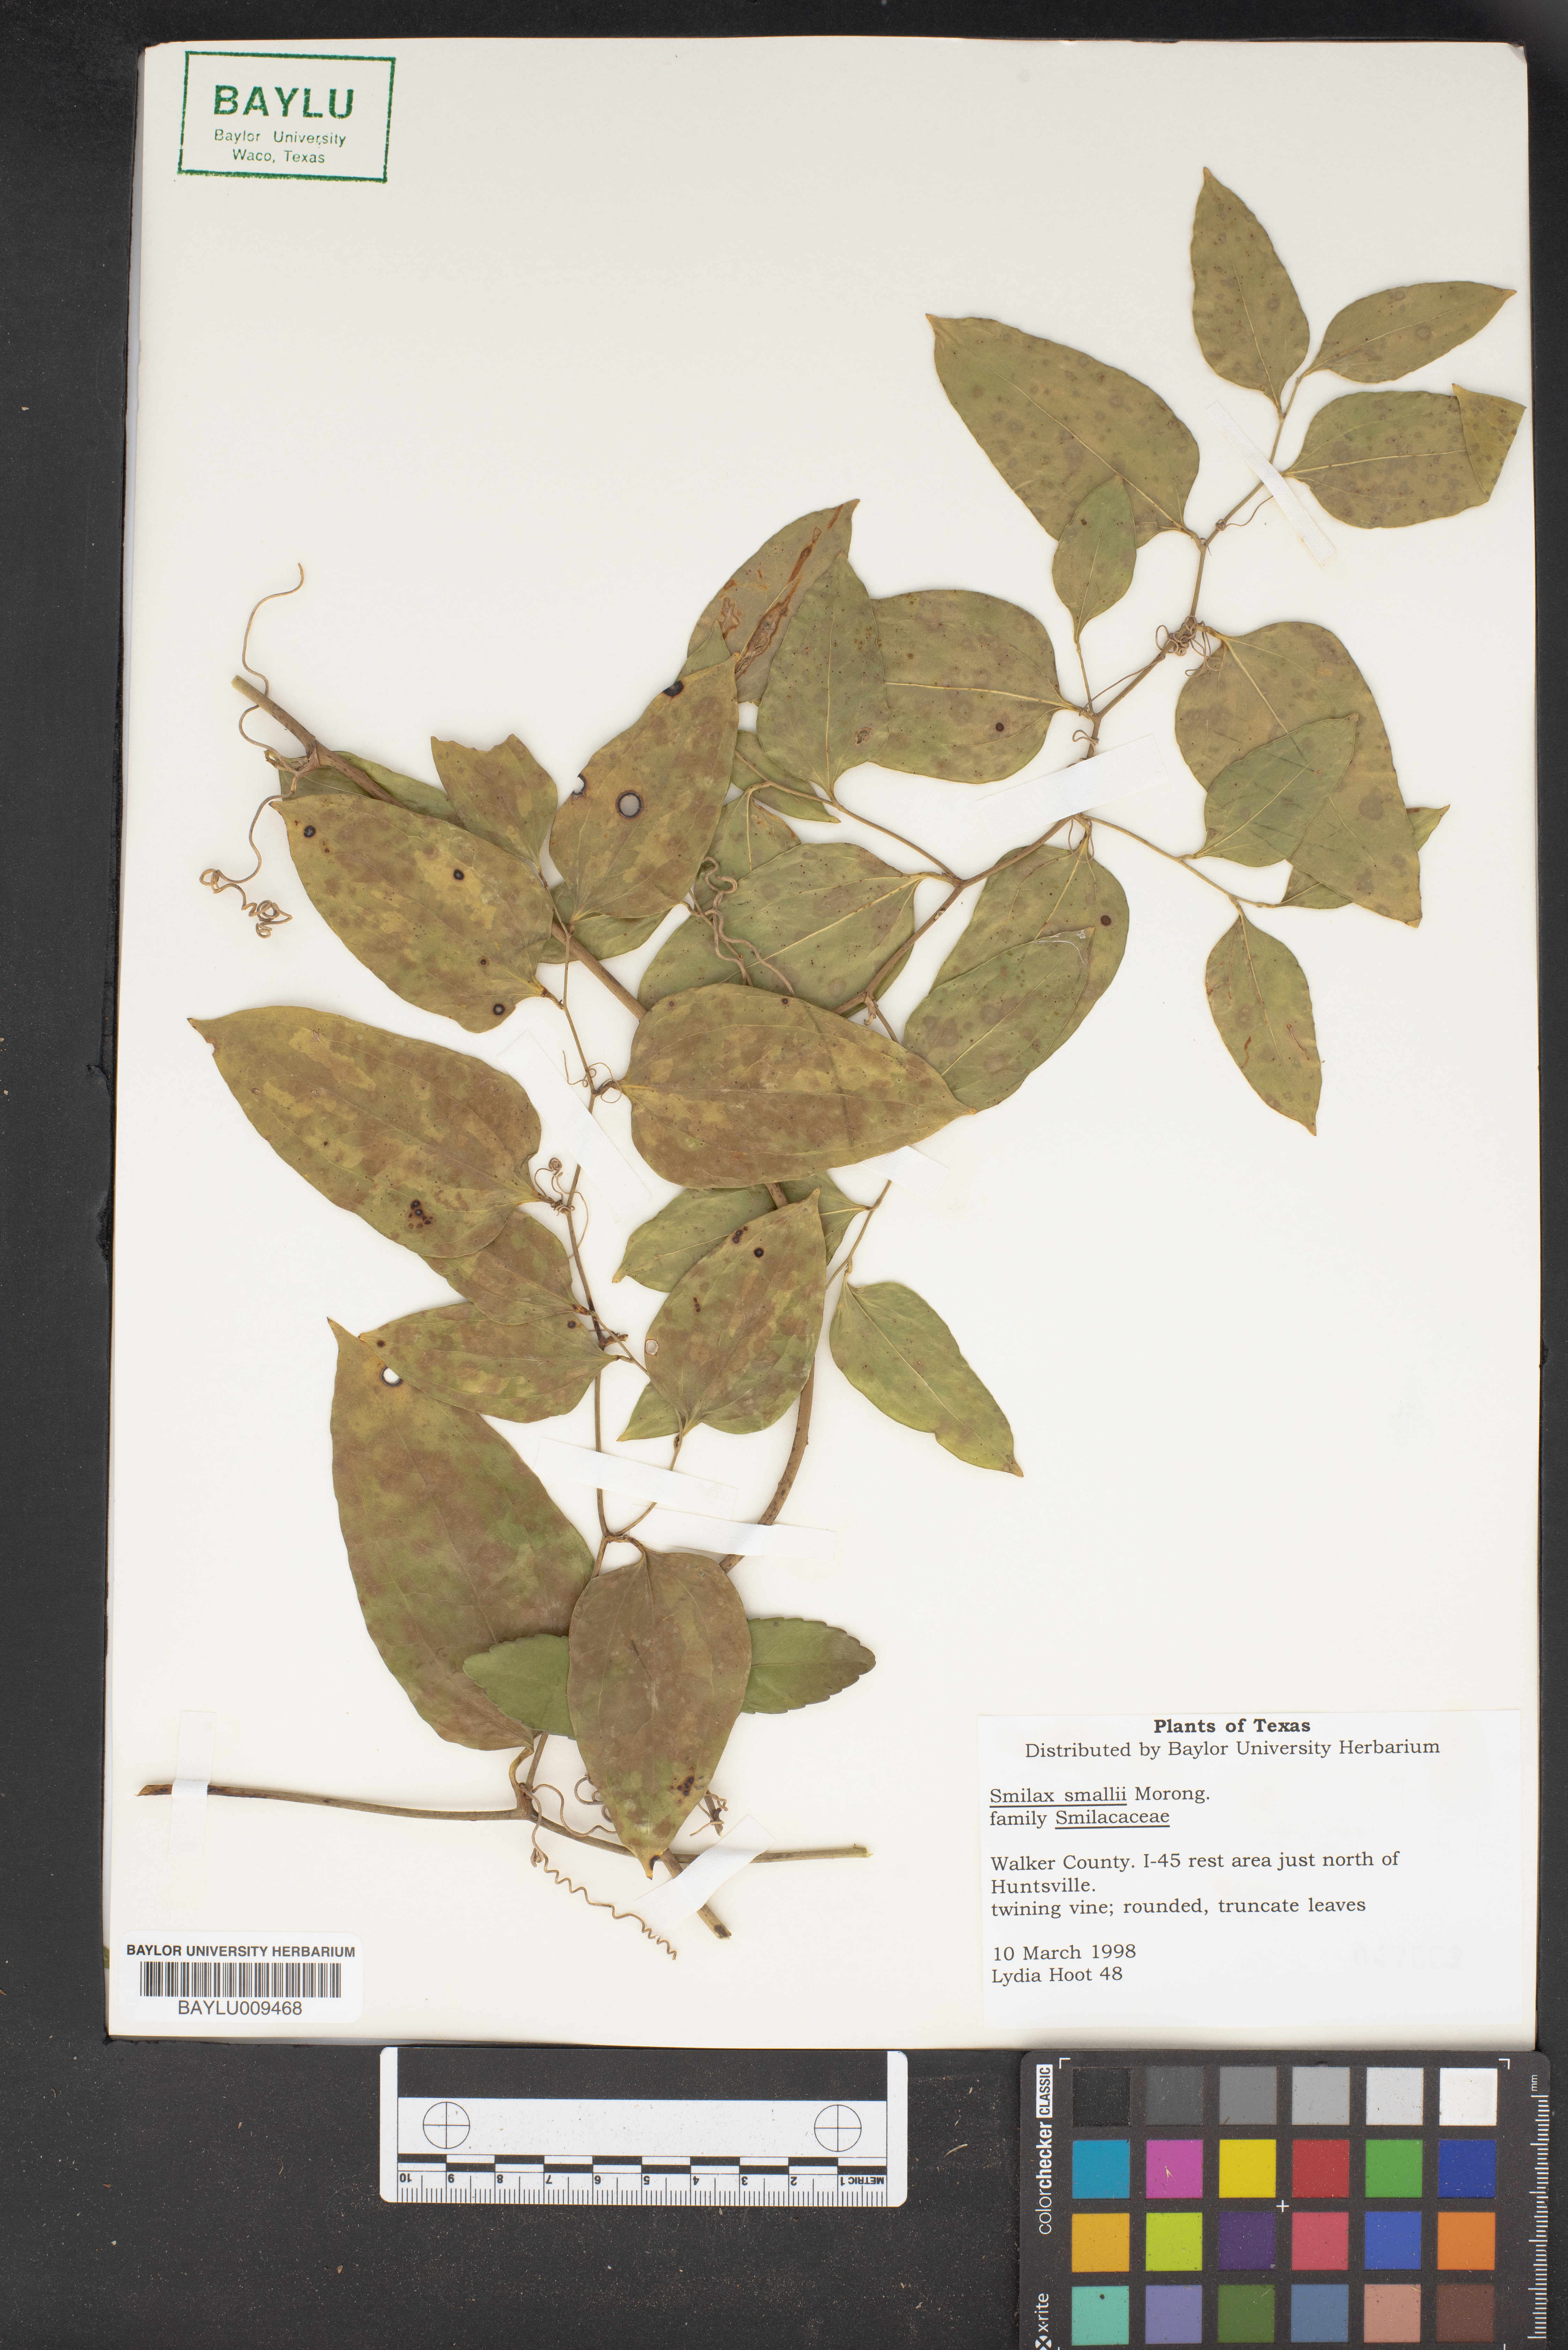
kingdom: Plantae
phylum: Tracheophyta
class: Liliopsida
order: Liliales
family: Smilacaceae
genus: Smilax
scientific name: Smilax maritima
